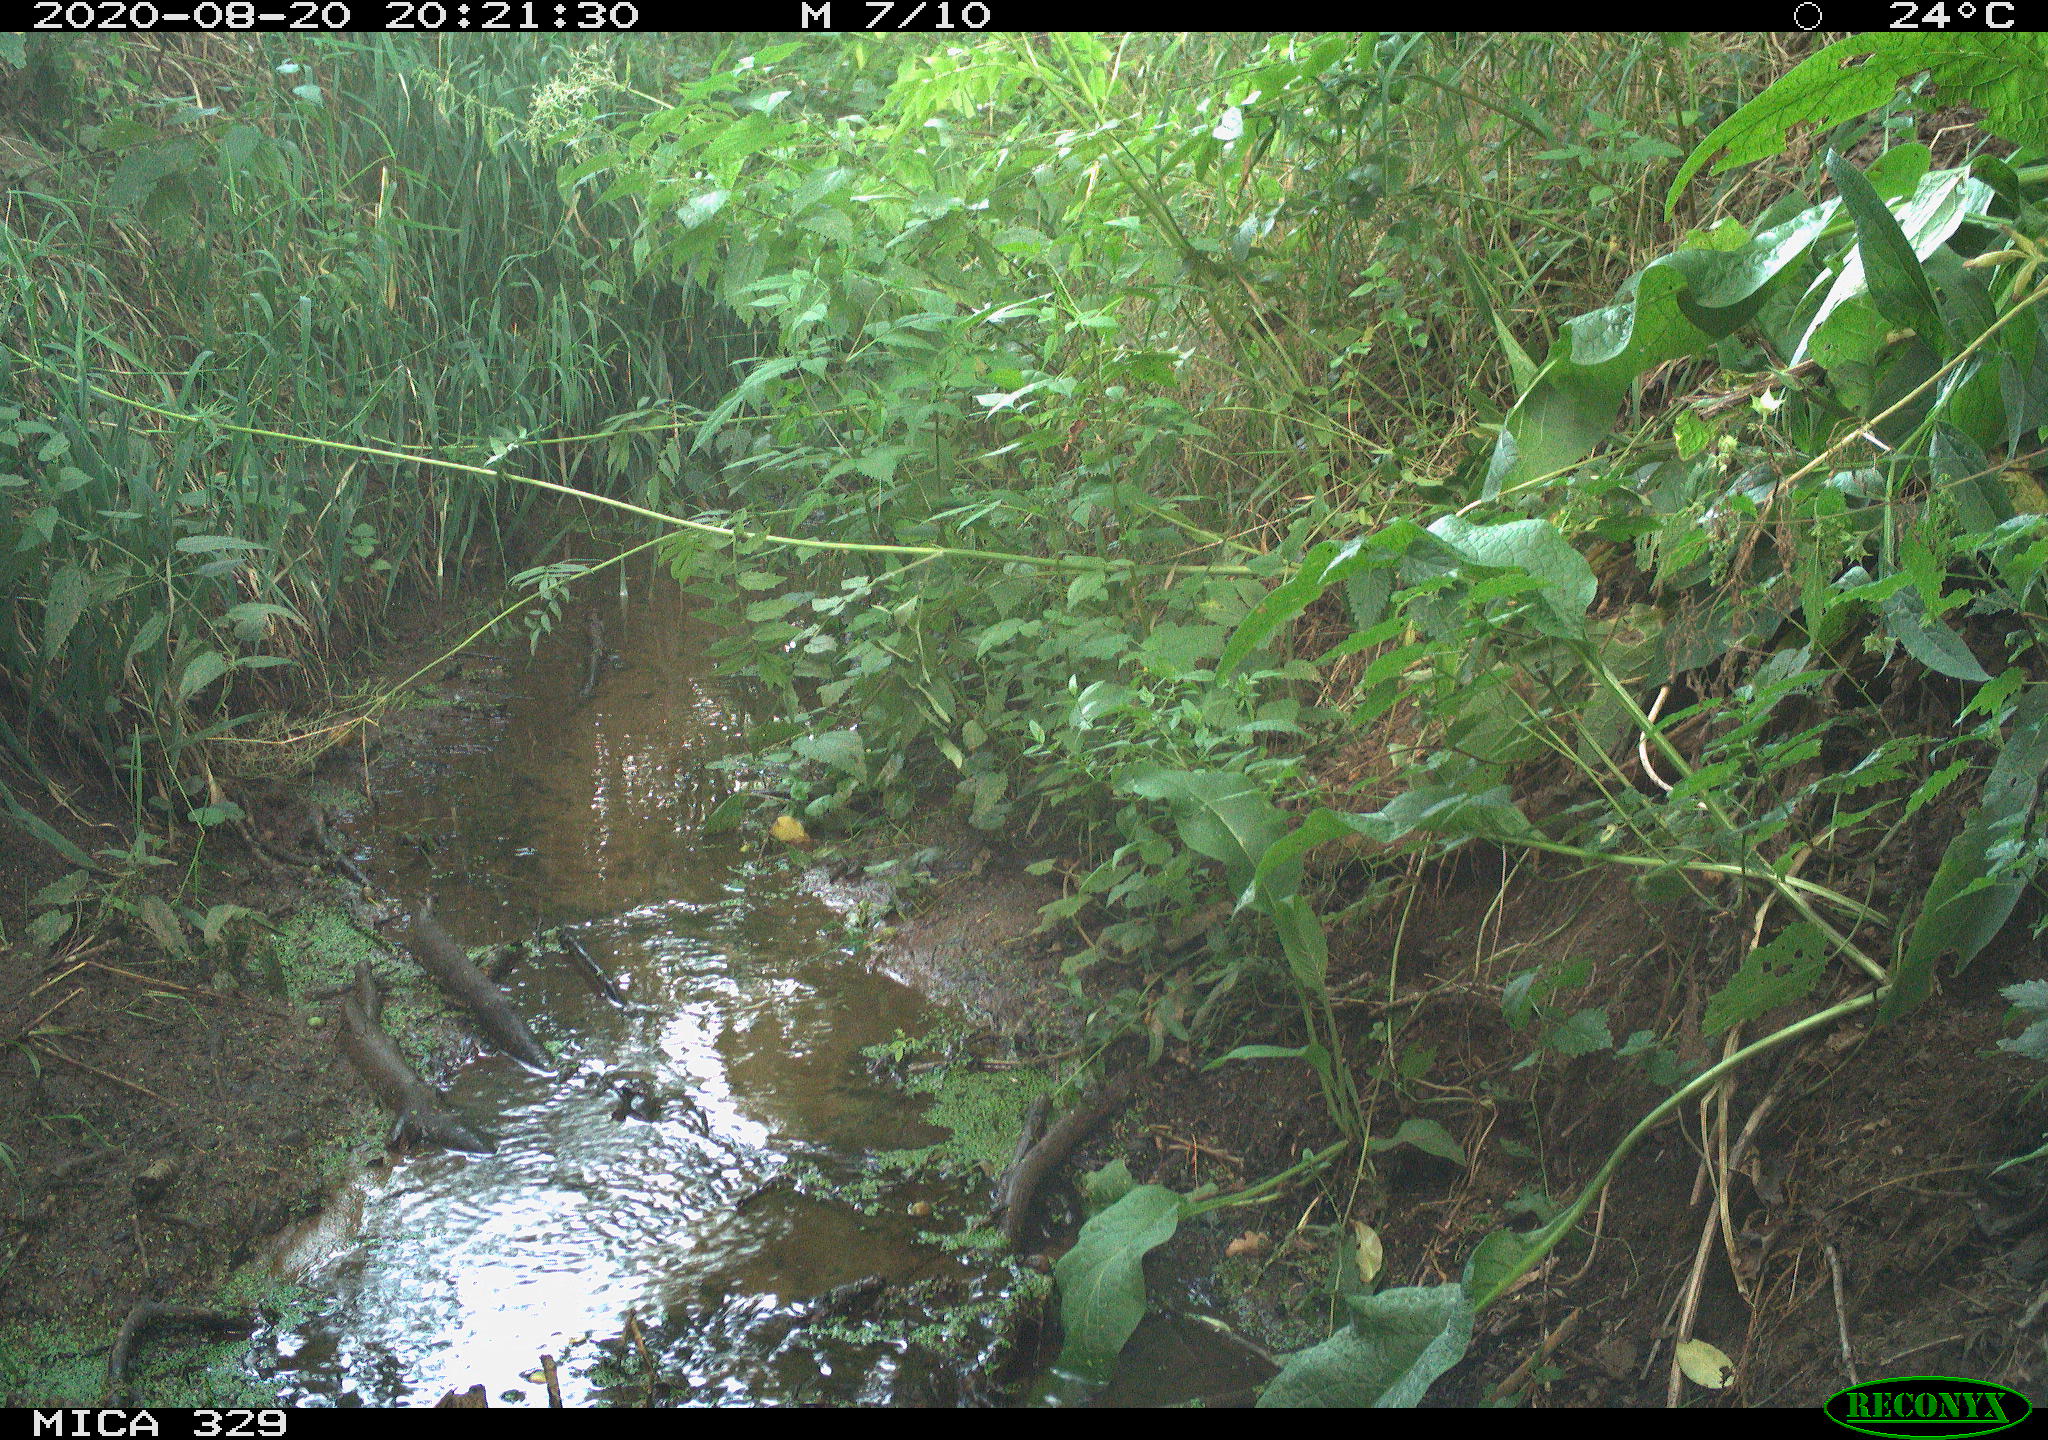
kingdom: Animalia
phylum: Chordata
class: Aves
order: Passeriformes
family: Muscicapidae
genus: Erithacus
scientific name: Erithacus rubecula
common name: European robin
